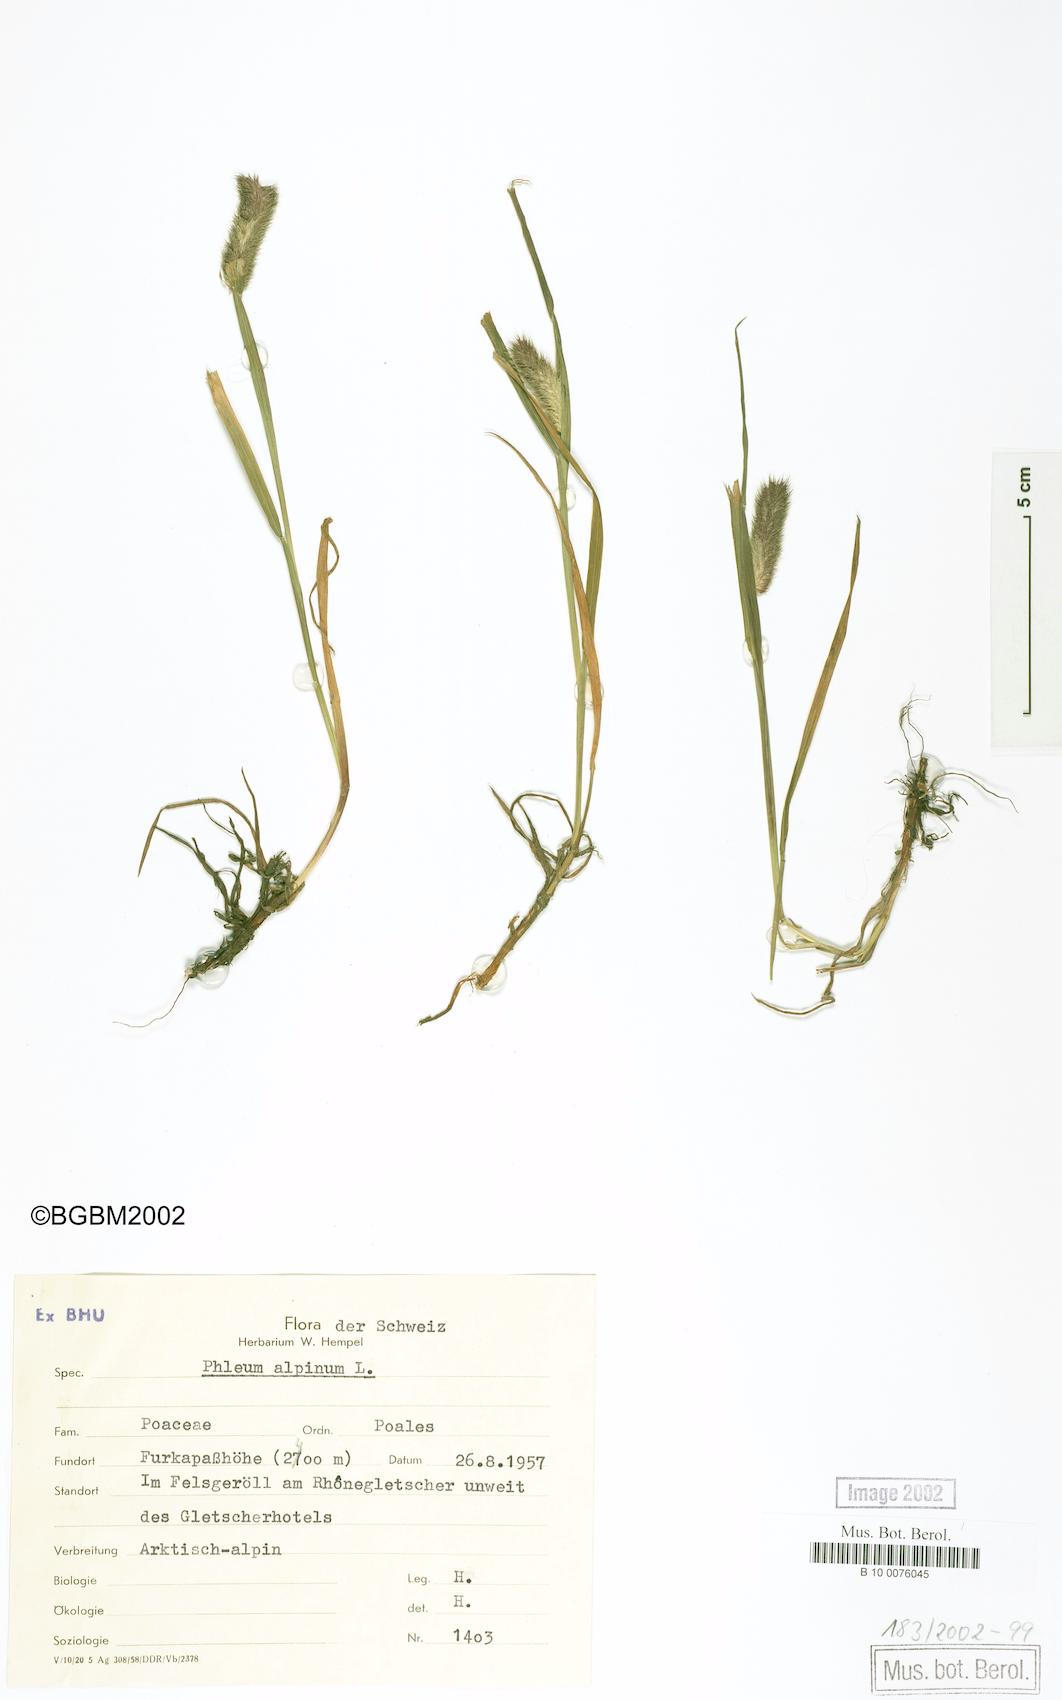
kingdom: Plantae
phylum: Tracheophyta
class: Liliopsida
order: Poales
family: Poaceae
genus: Phleum
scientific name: Phleum alpinum
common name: Alpine cat's-tail
